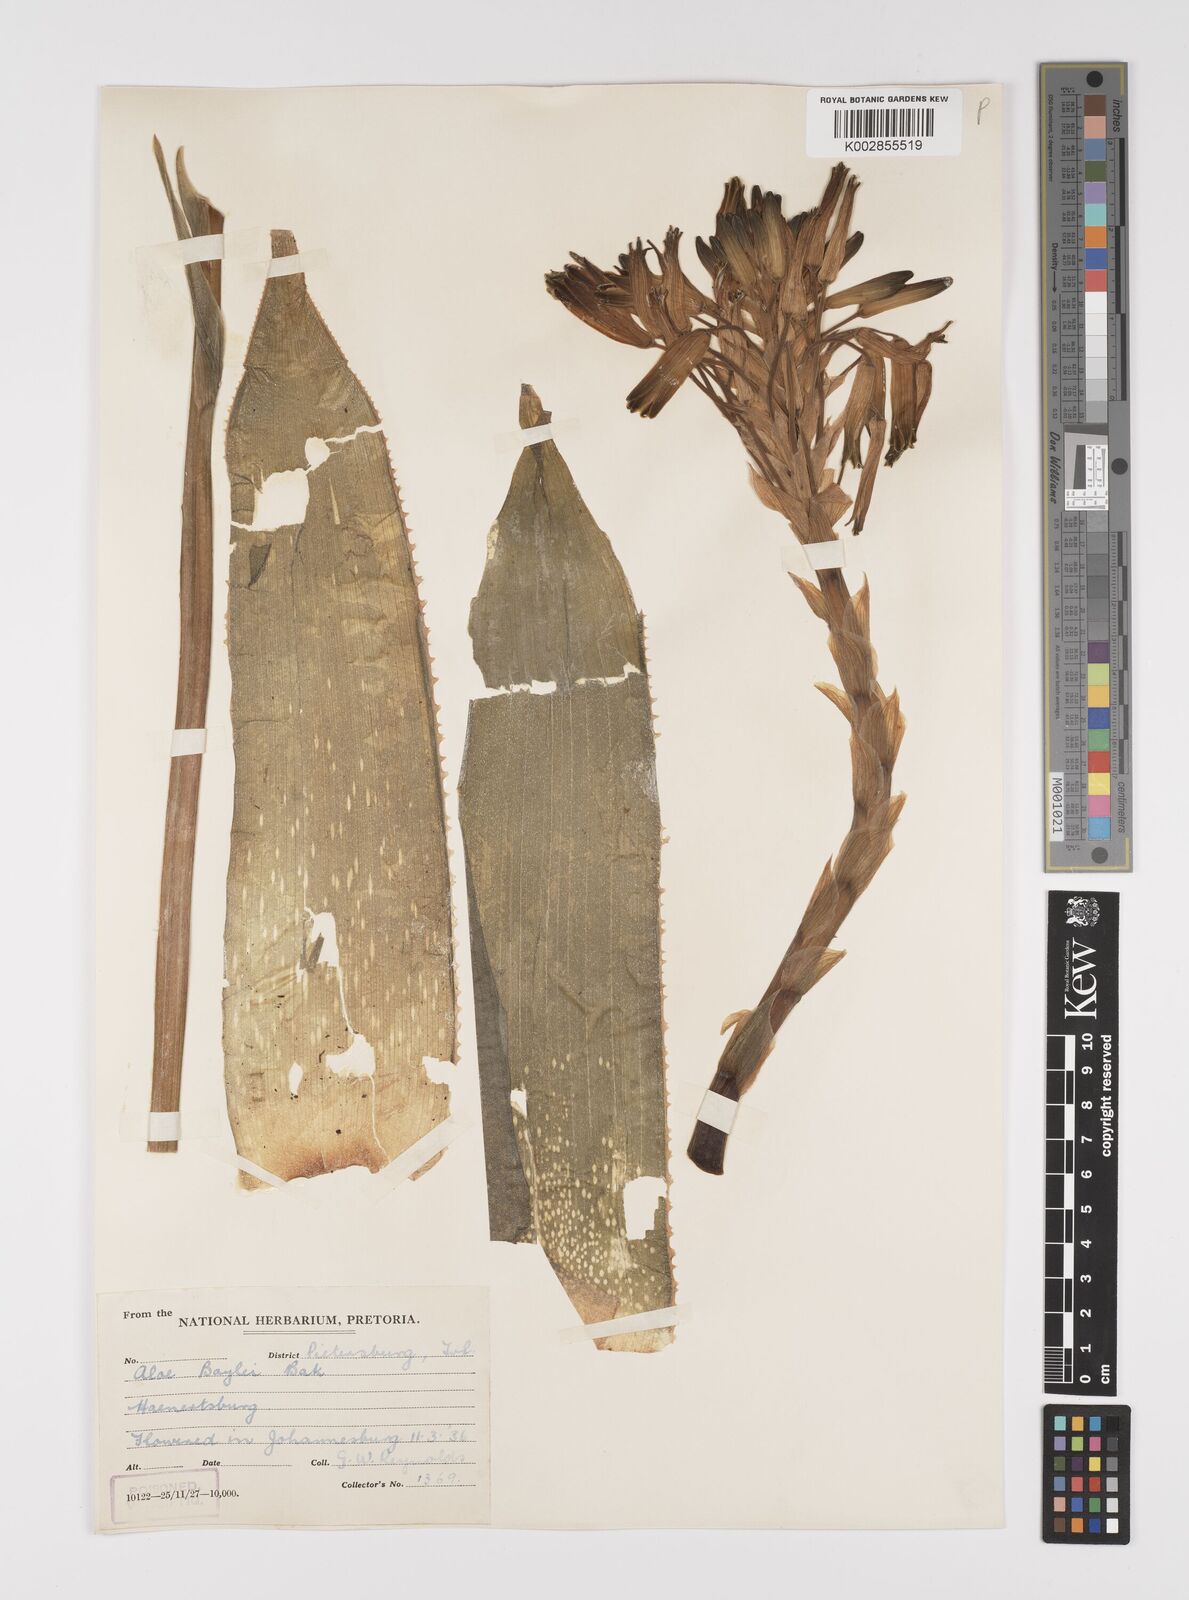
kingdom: Plantae
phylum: Tracheophyta
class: Liliopsida
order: Asparagales
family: Asphodelaceae
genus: Aloe
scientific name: Aloe boylei
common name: Broad-leaved grass aloe
